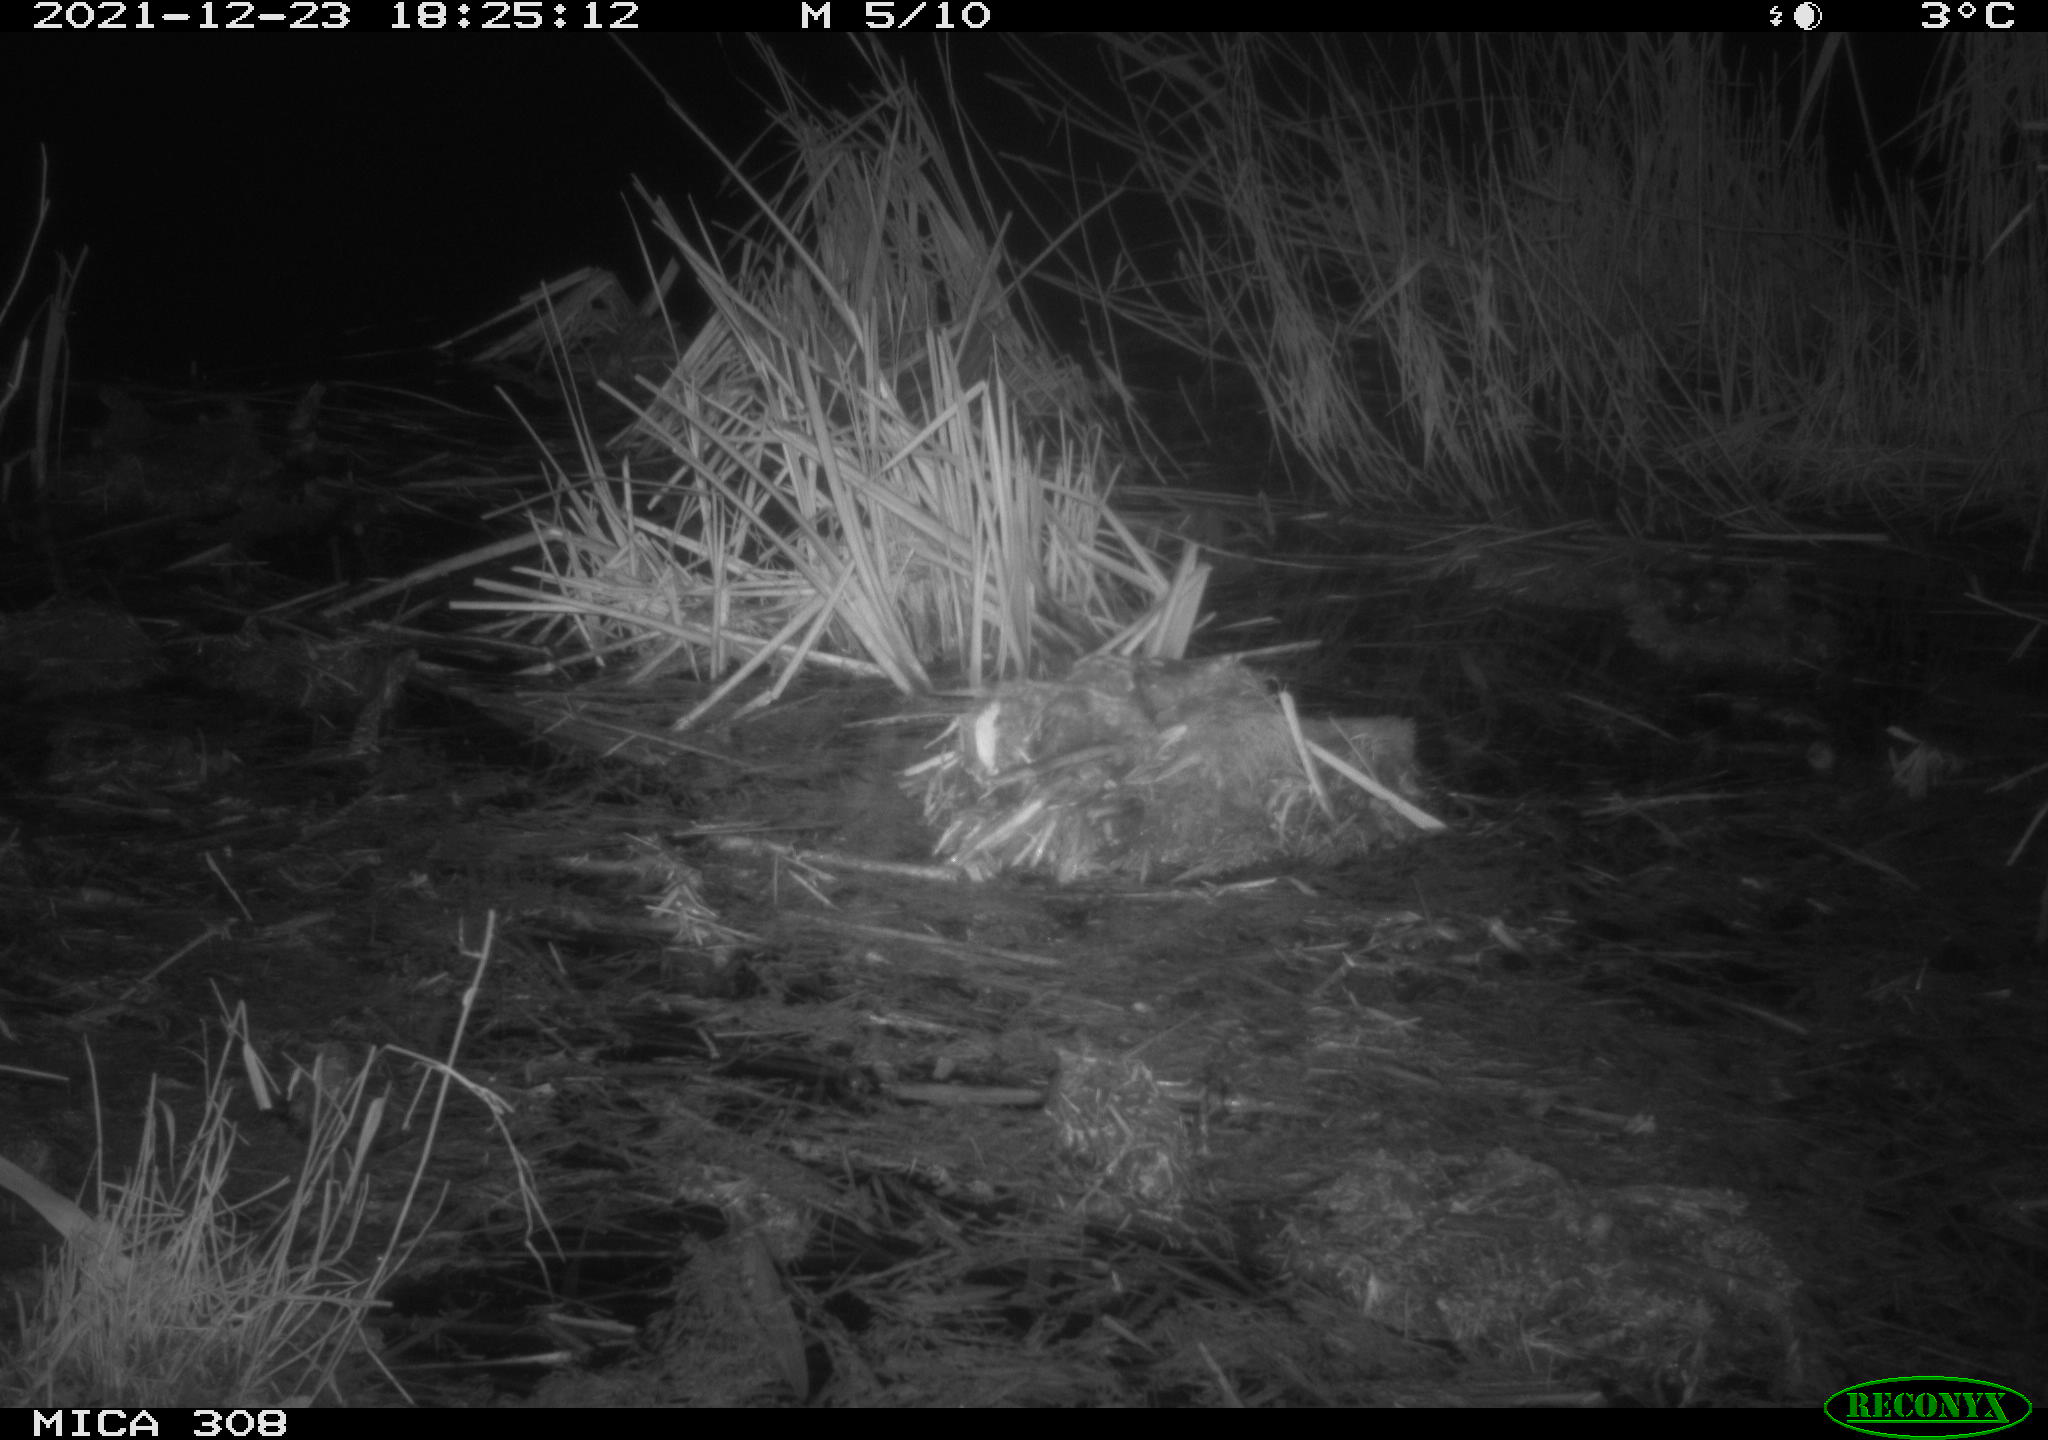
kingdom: Animalia
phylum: Chordata
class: Mammalia
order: Rodentia
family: Cricetidae
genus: Ondatra
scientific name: Ondatra zibethicus
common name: Muskrat
